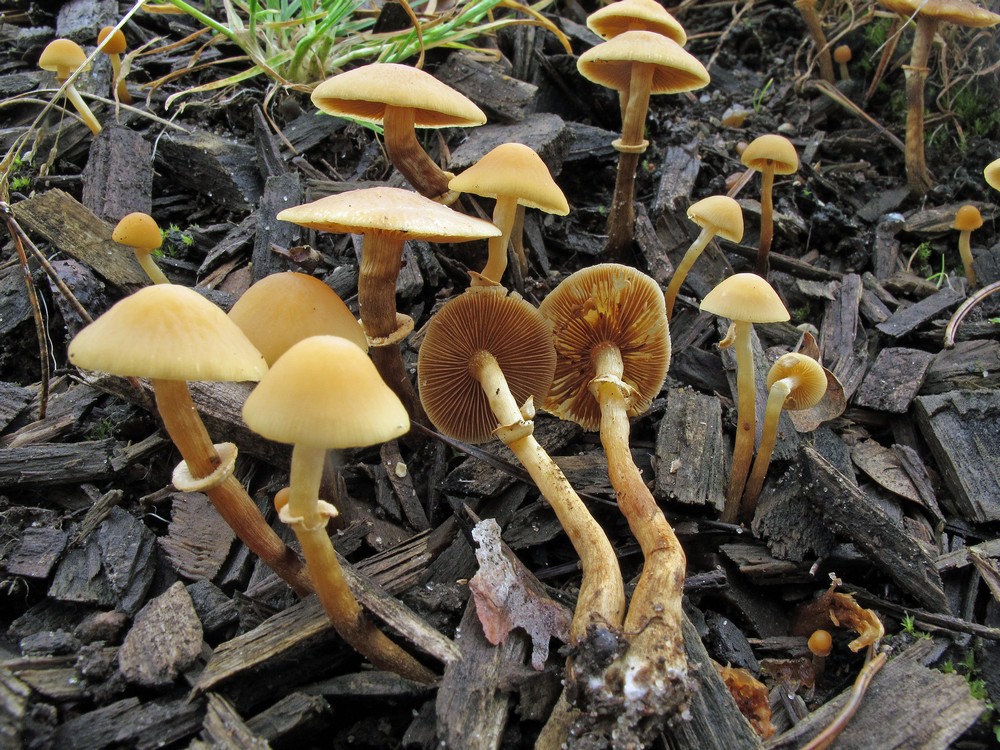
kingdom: Fungi
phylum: Basidiomycota
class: Agaricomycetes
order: Agaricales
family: Bolbitiaceae
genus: Conocybe
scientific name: Conocybe arrhenii
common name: ring-dansehat
